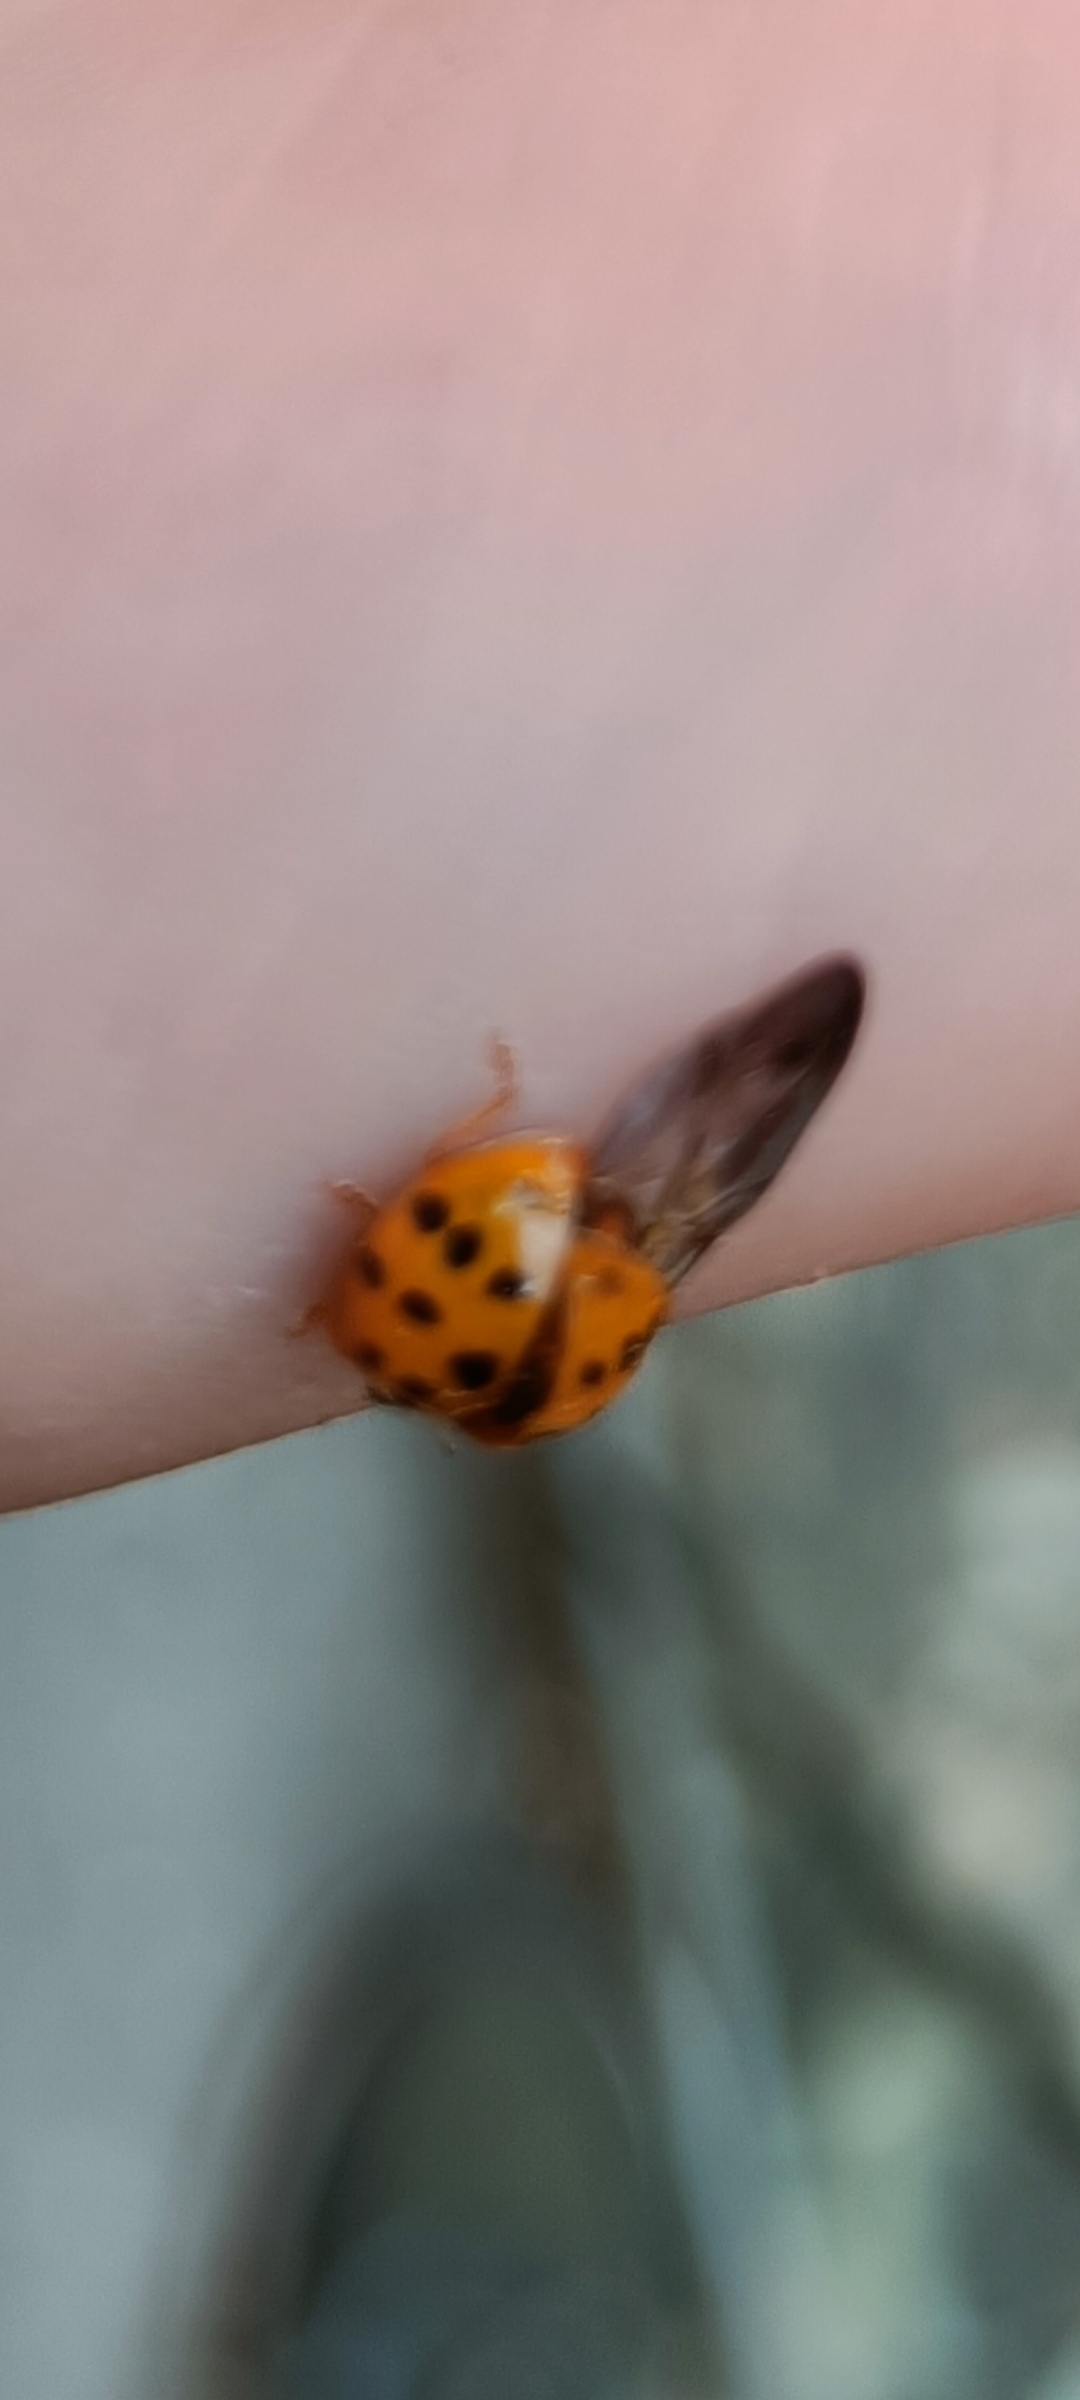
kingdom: Animalia
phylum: Arthropoda
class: Insecta
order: Coleoptera
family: Coccinellidae
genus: Harmonia
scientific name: Harmonia axyridis
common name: Harlekinmariehøne
